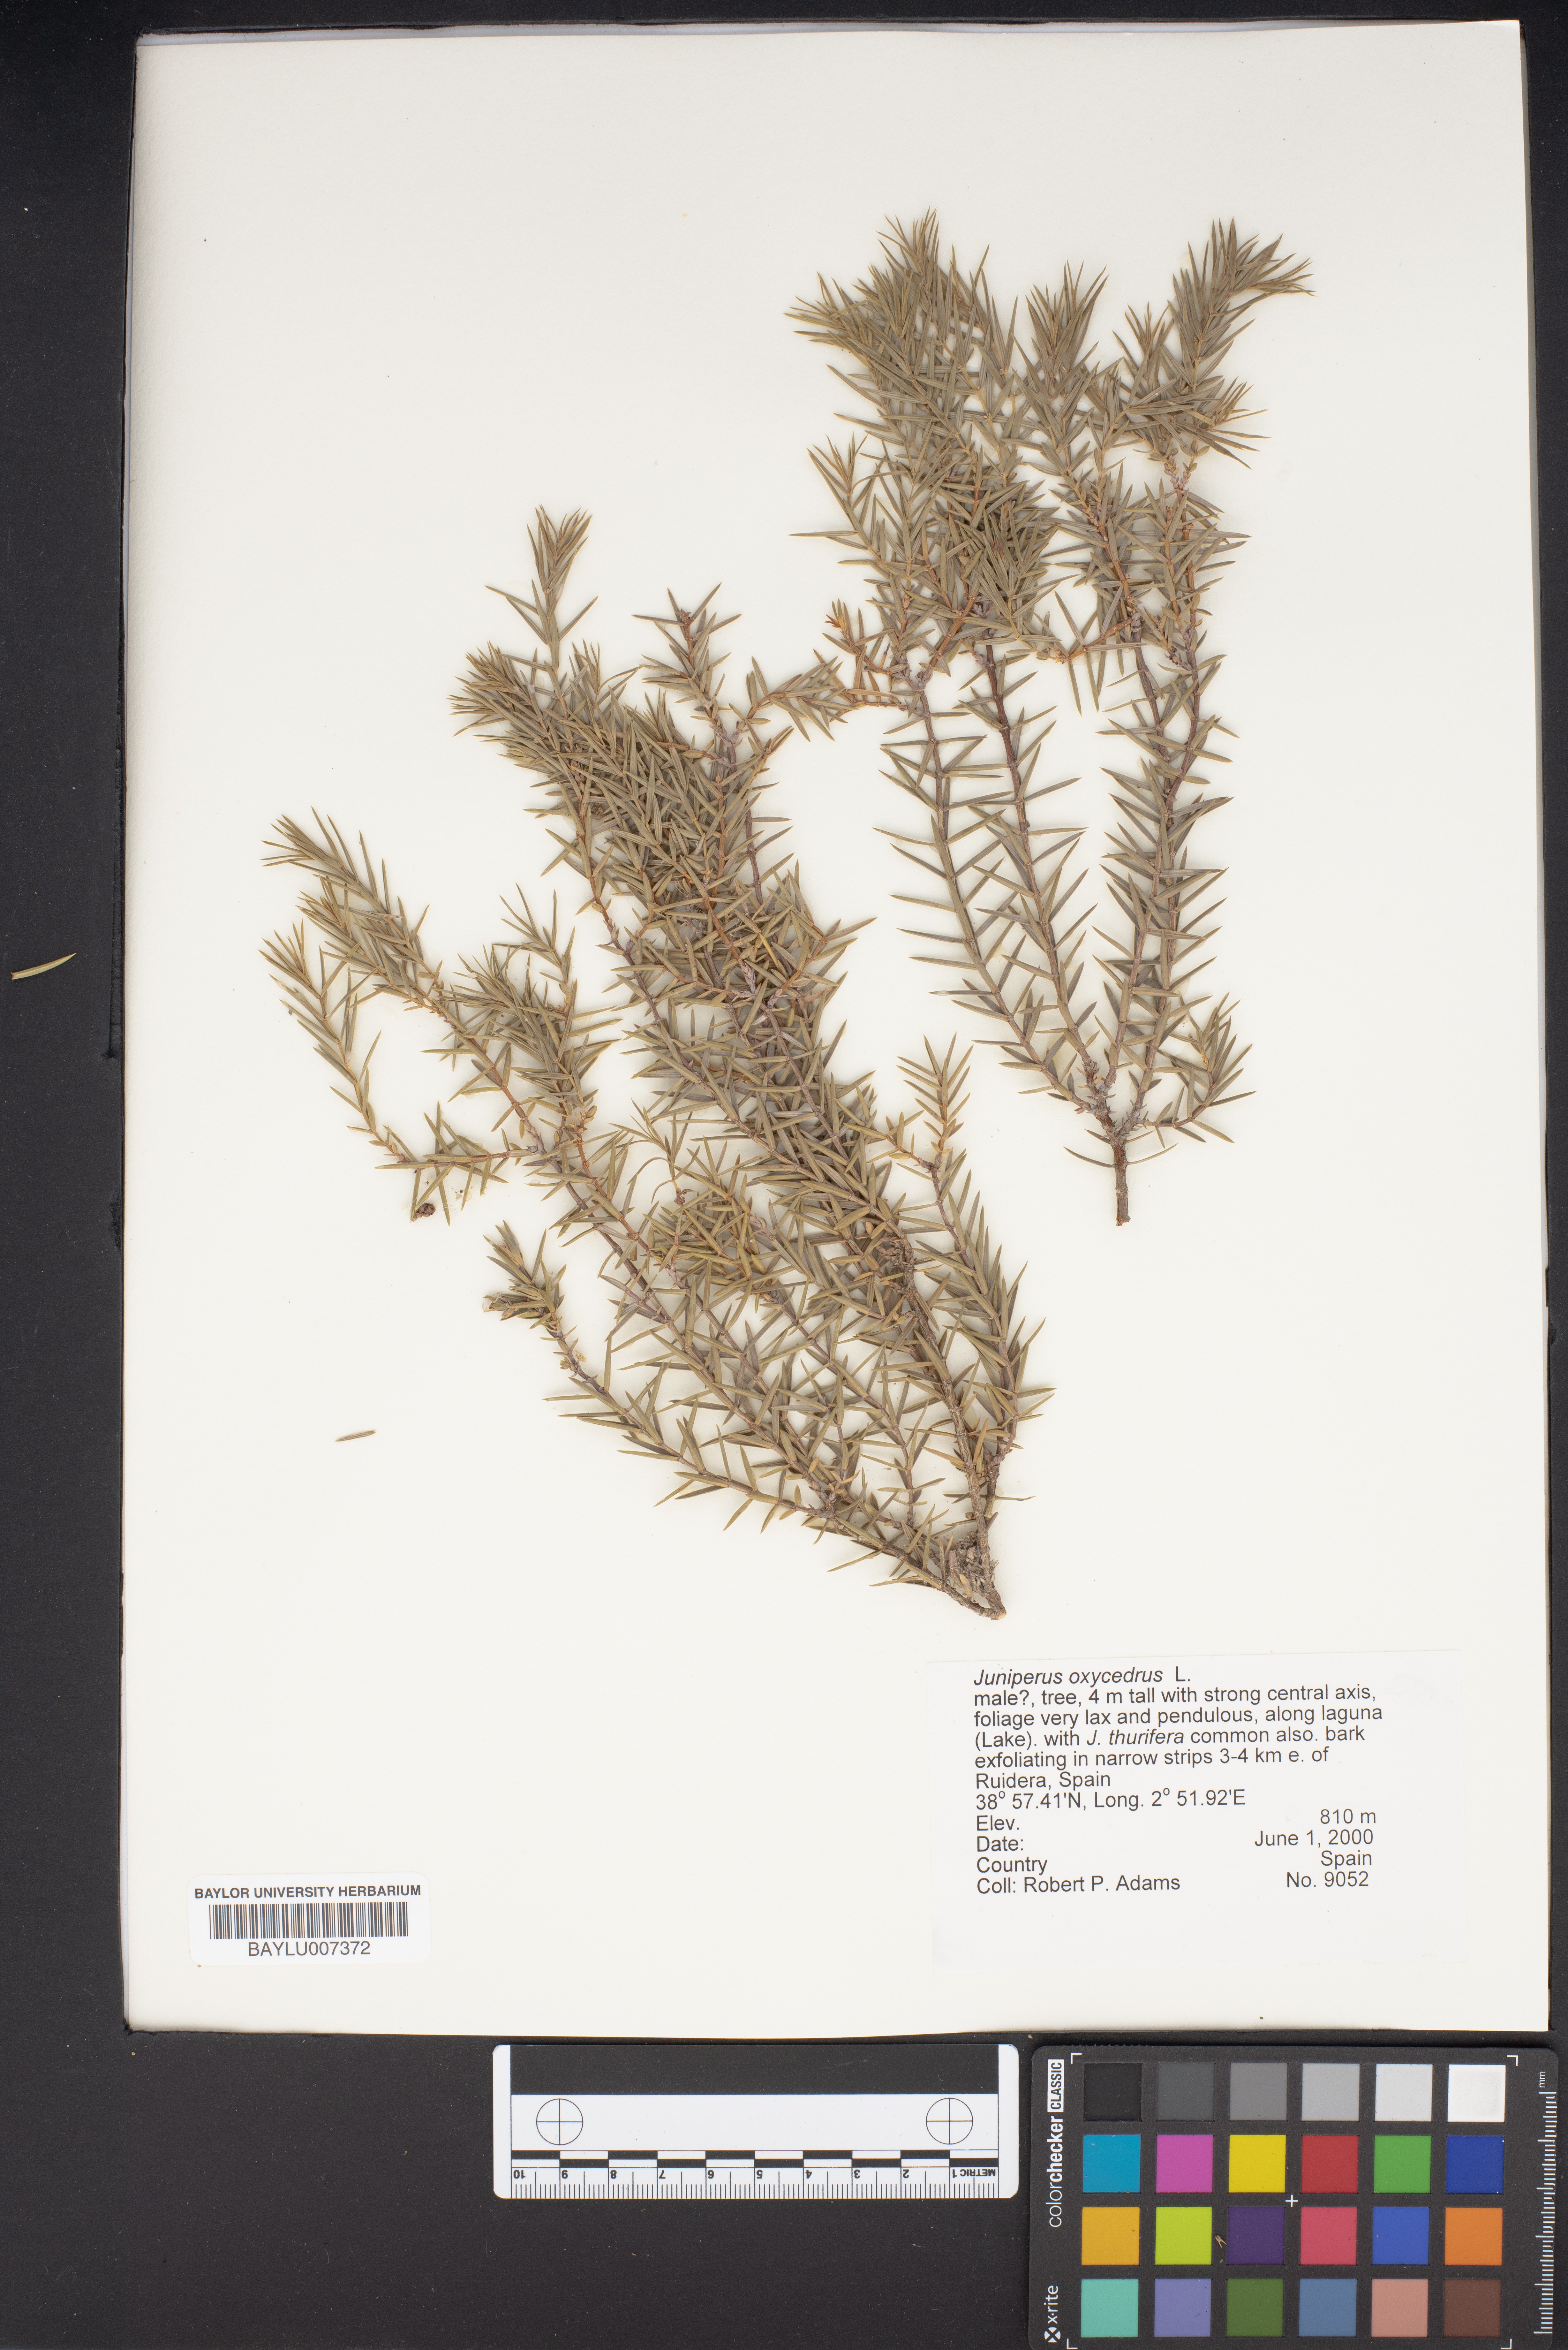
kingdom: Plantae
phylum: Tracheophyta
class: Pinopsida
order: Pinales
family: Cupressaceae
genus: Juniperus
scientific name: Juniperus oxycedrus
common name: Prickly juniper
